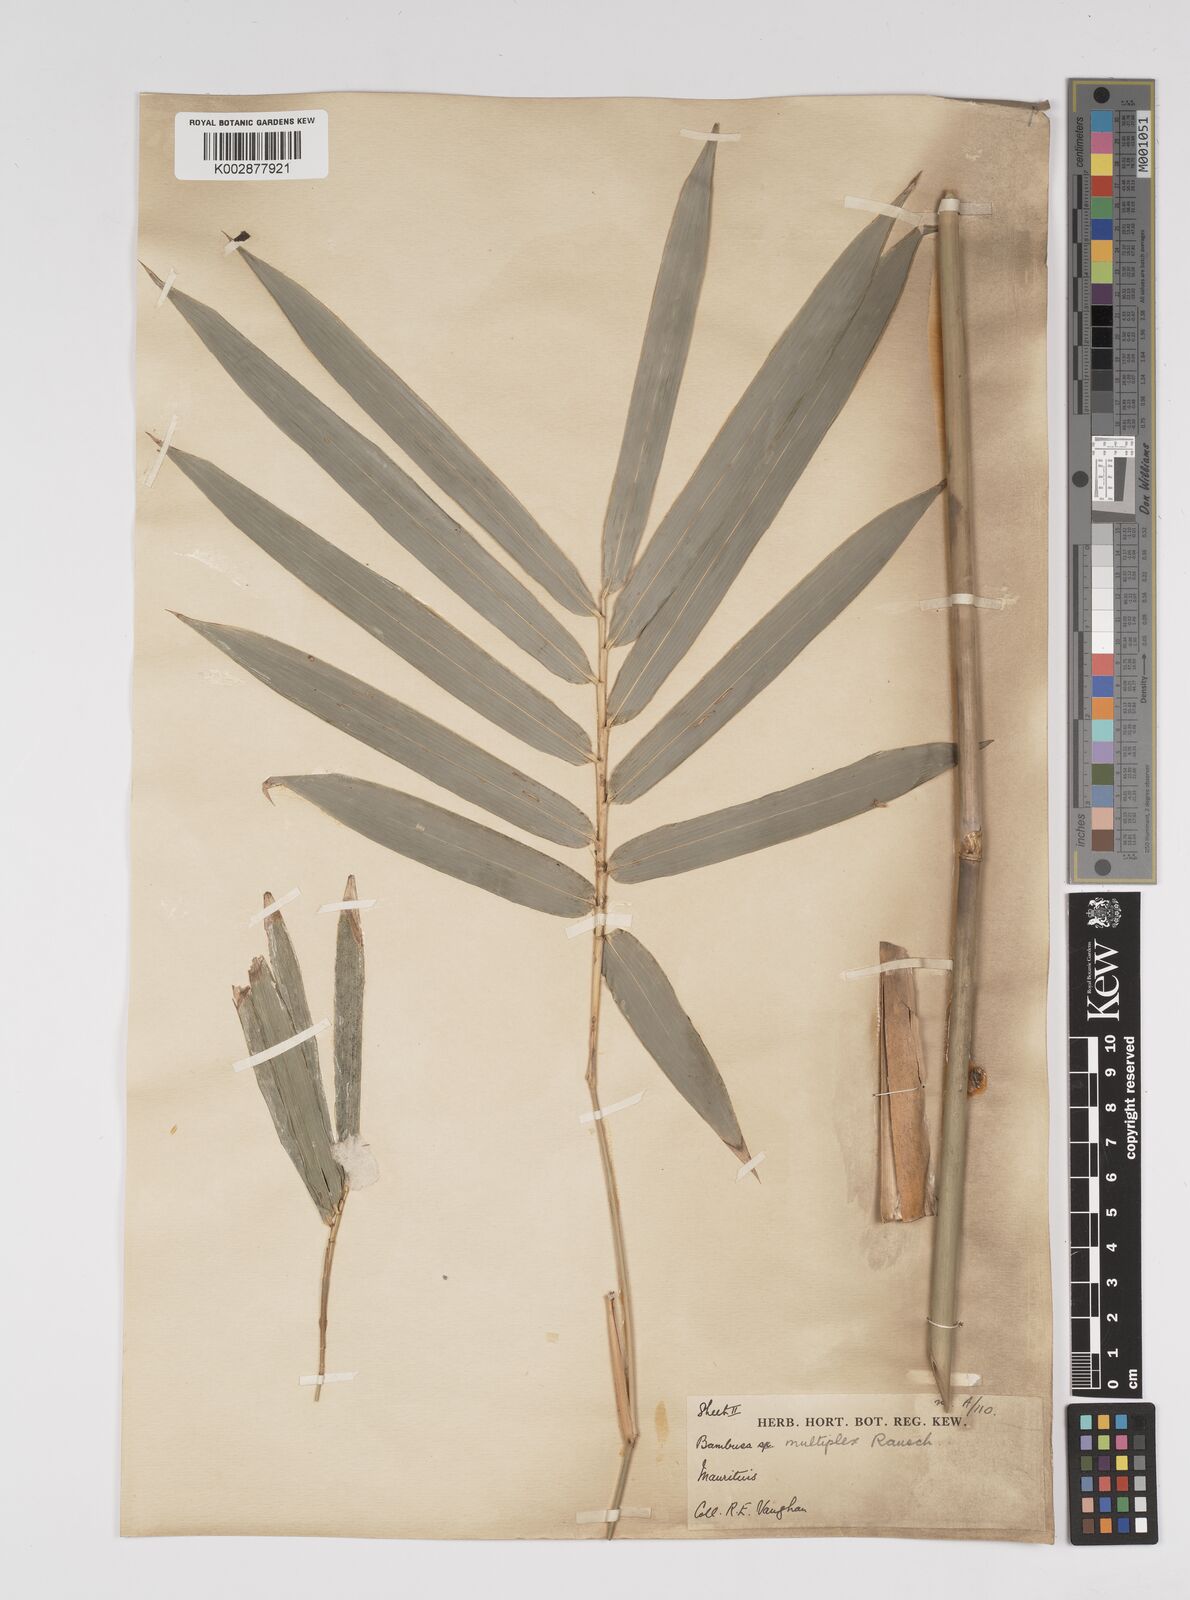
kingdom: Plantae
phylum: Tracheophyta
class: Liliopsida
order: Poales
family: Poaceae
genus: Bambusa
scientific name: Bambusa multiplex
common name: Hedge bamboo
